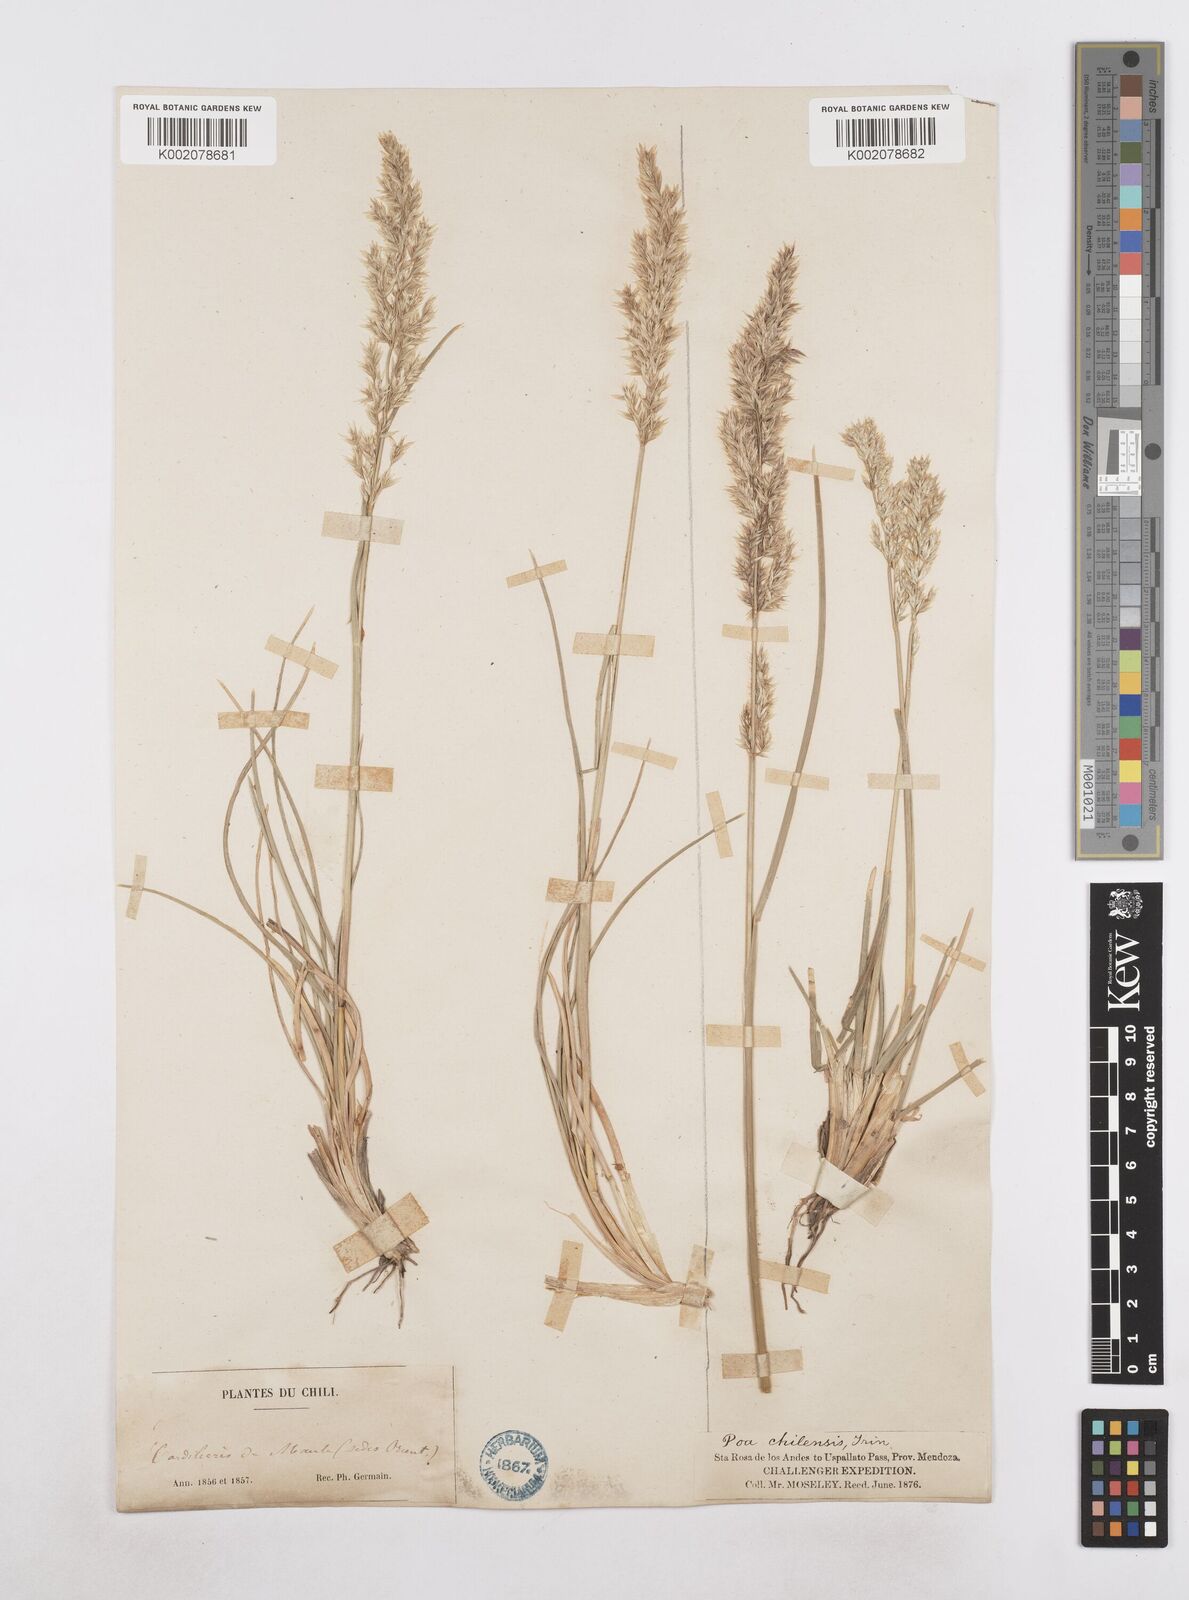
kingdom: Plantae
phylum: Tracheophyta
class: Liliopsida
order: Poales
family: Poaceae
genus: Poa
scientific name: Poa spiciformis
